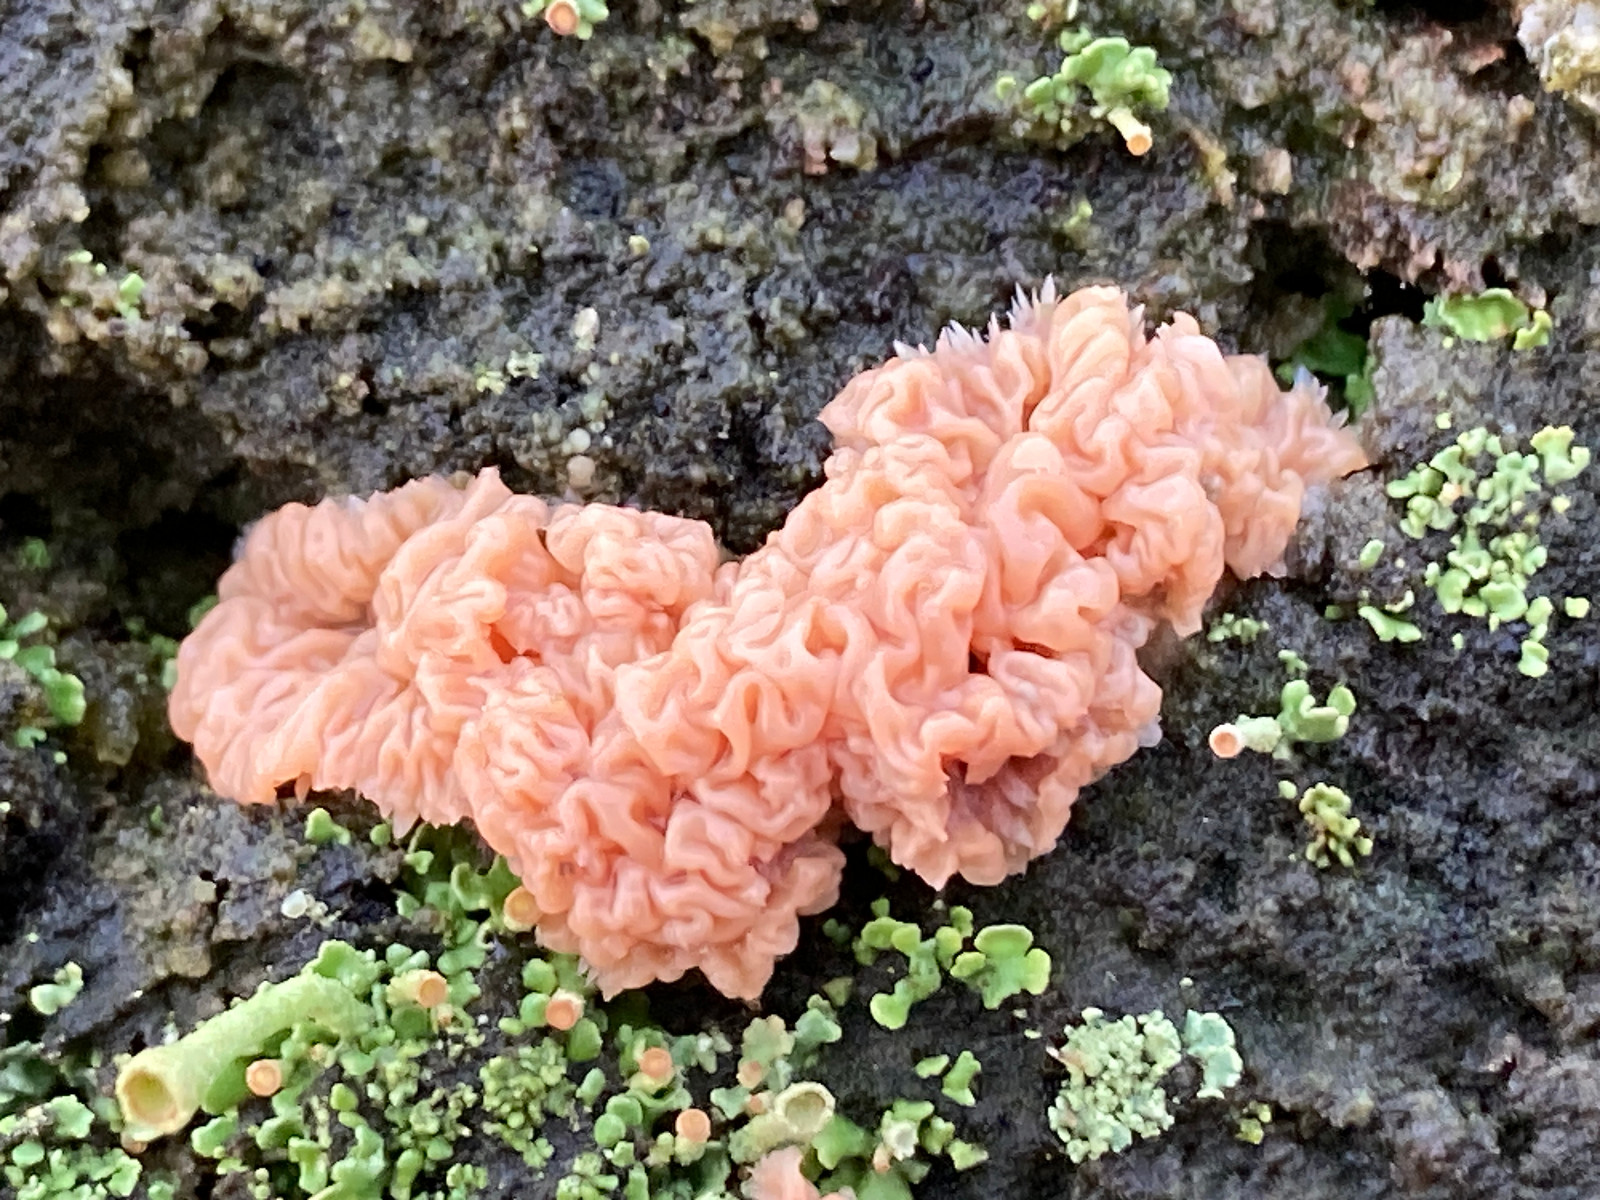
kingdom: Fungi
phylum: Basidiomycota
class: Agaricomycetes
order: Corticiales
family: Corticiaceae
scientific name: Corticiaceae
